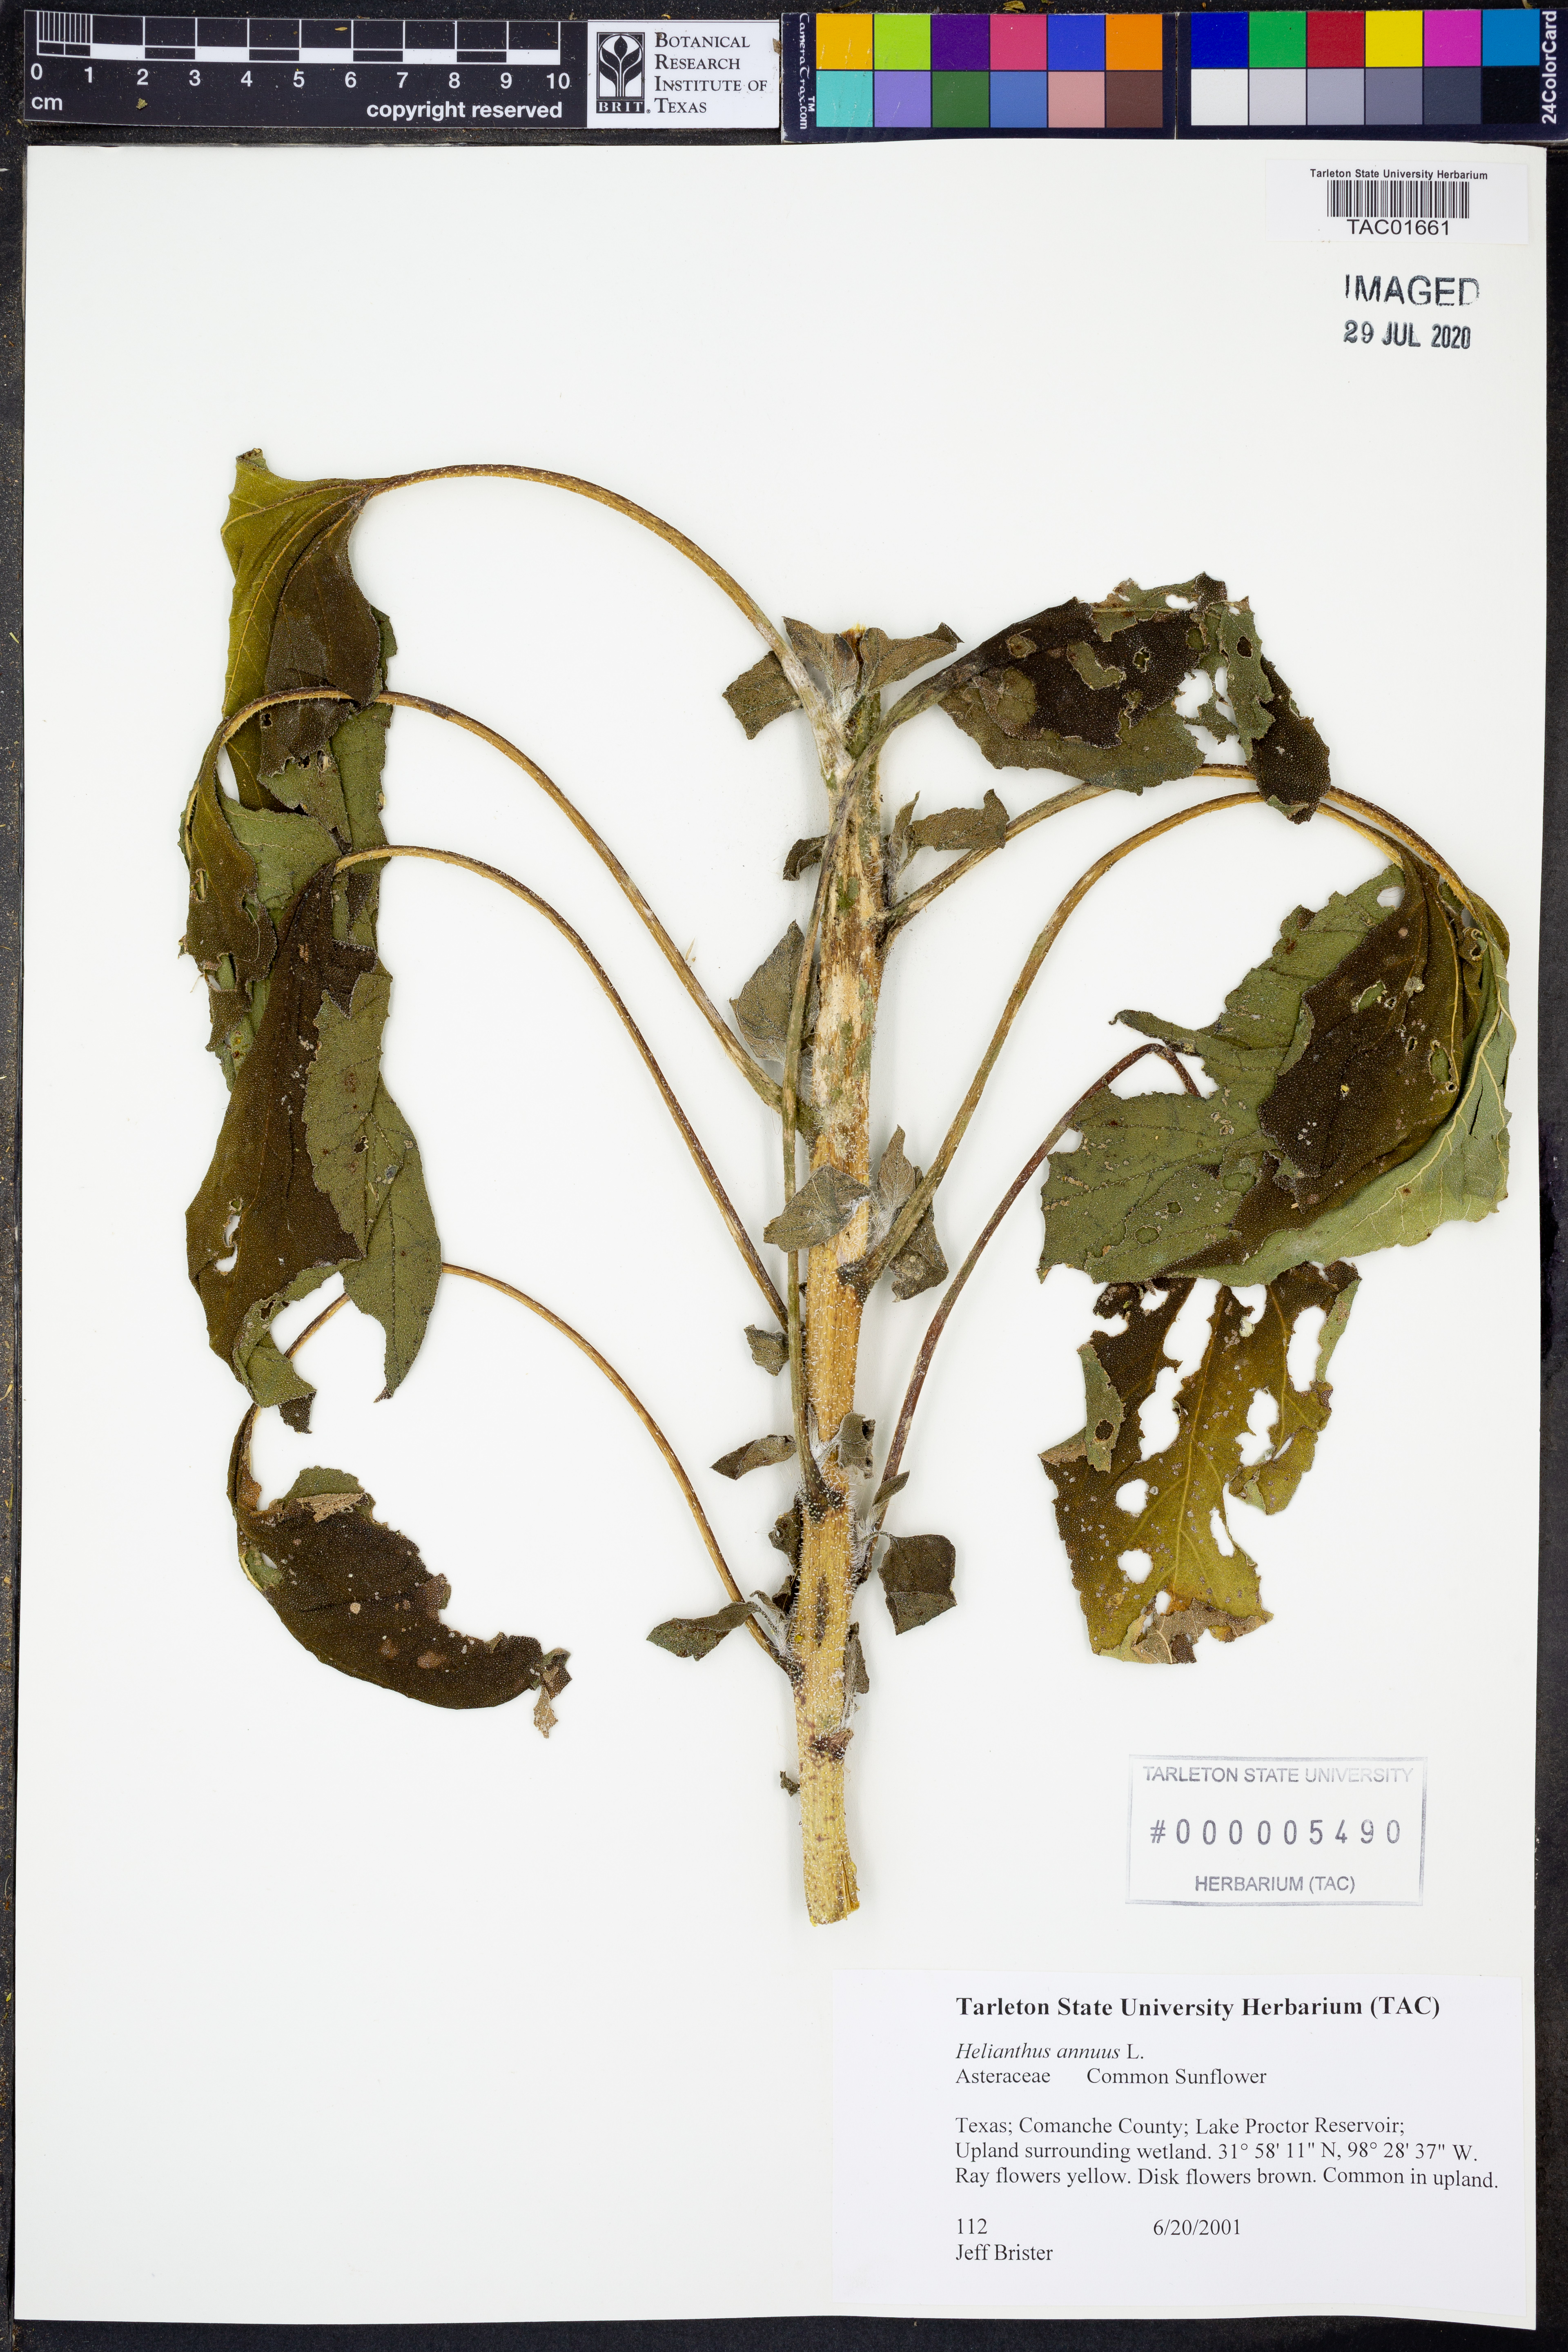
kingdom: Plantae
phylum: Tracheophyta
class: Magnoliopsida
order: Asterales
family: Asteraceae
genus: Helianthus
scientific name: Helianthus annuus
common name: Sunflower
